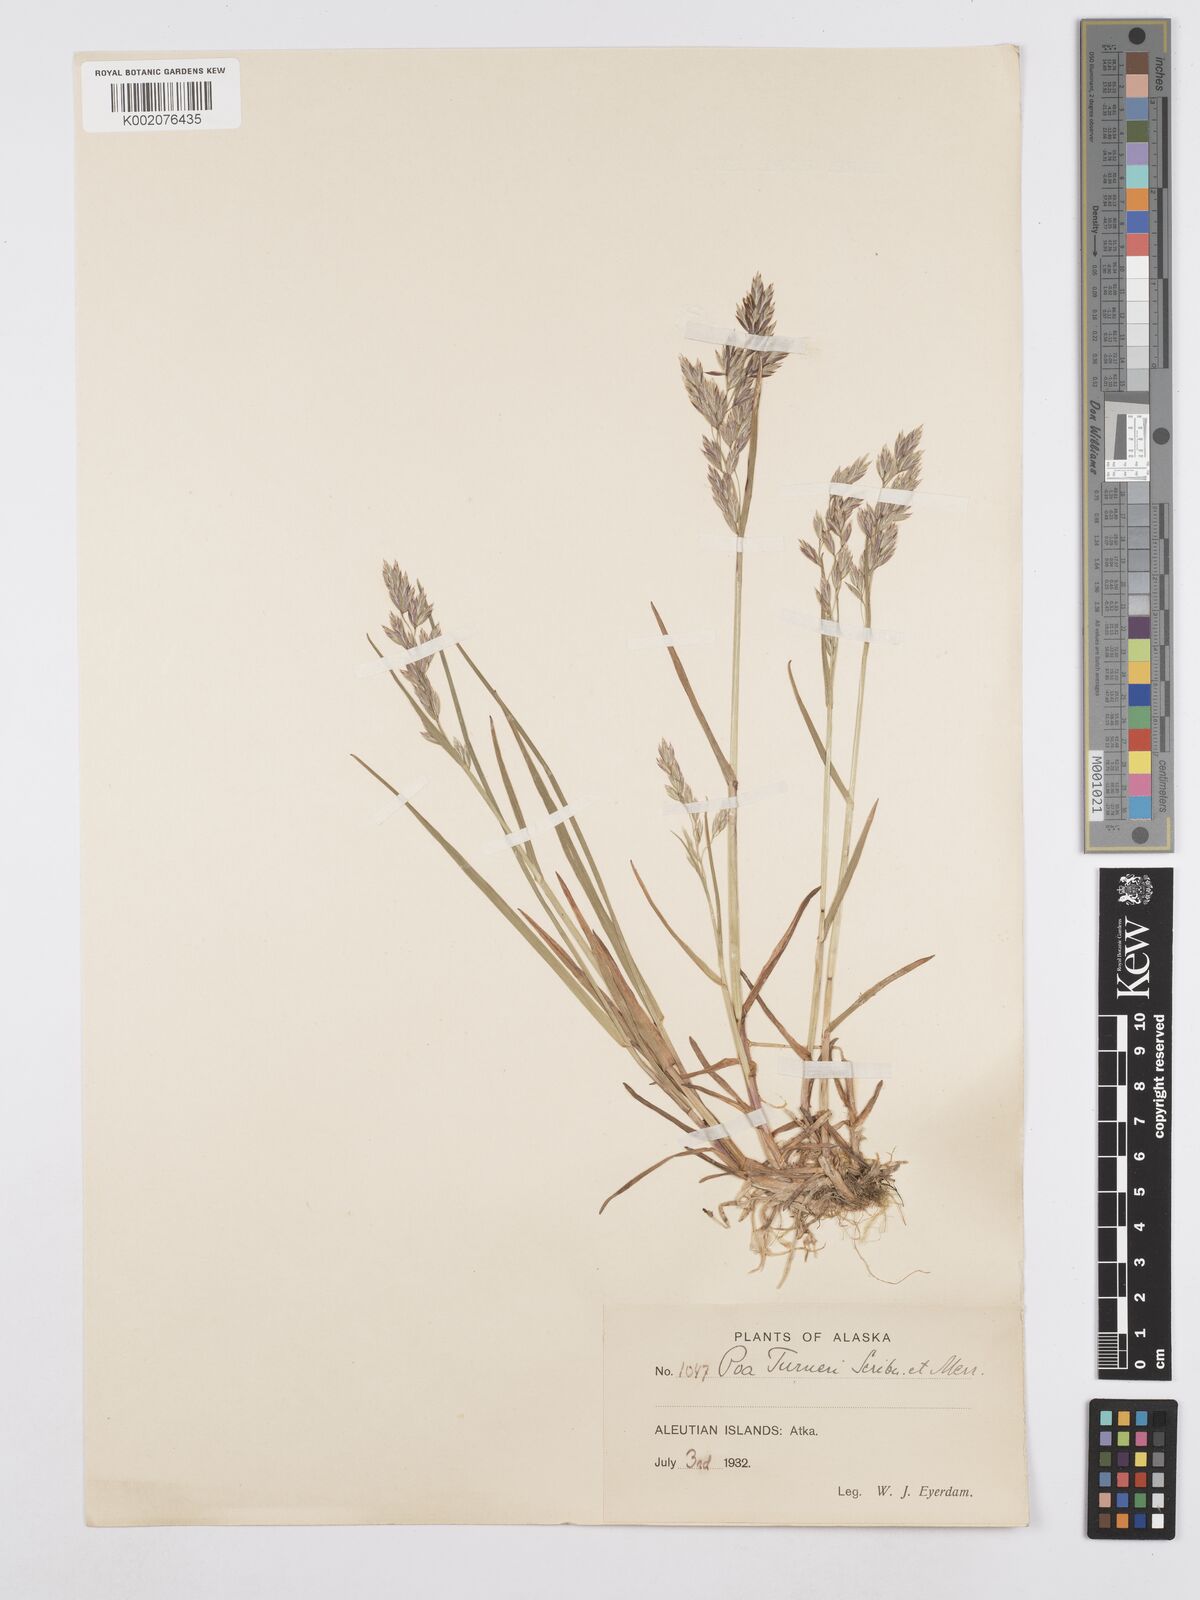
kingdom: Plantae
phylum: Tracheophyta
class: Liliopsida
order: Poales
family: Poaceae
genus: Poa
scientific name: Poa macrocalyx
